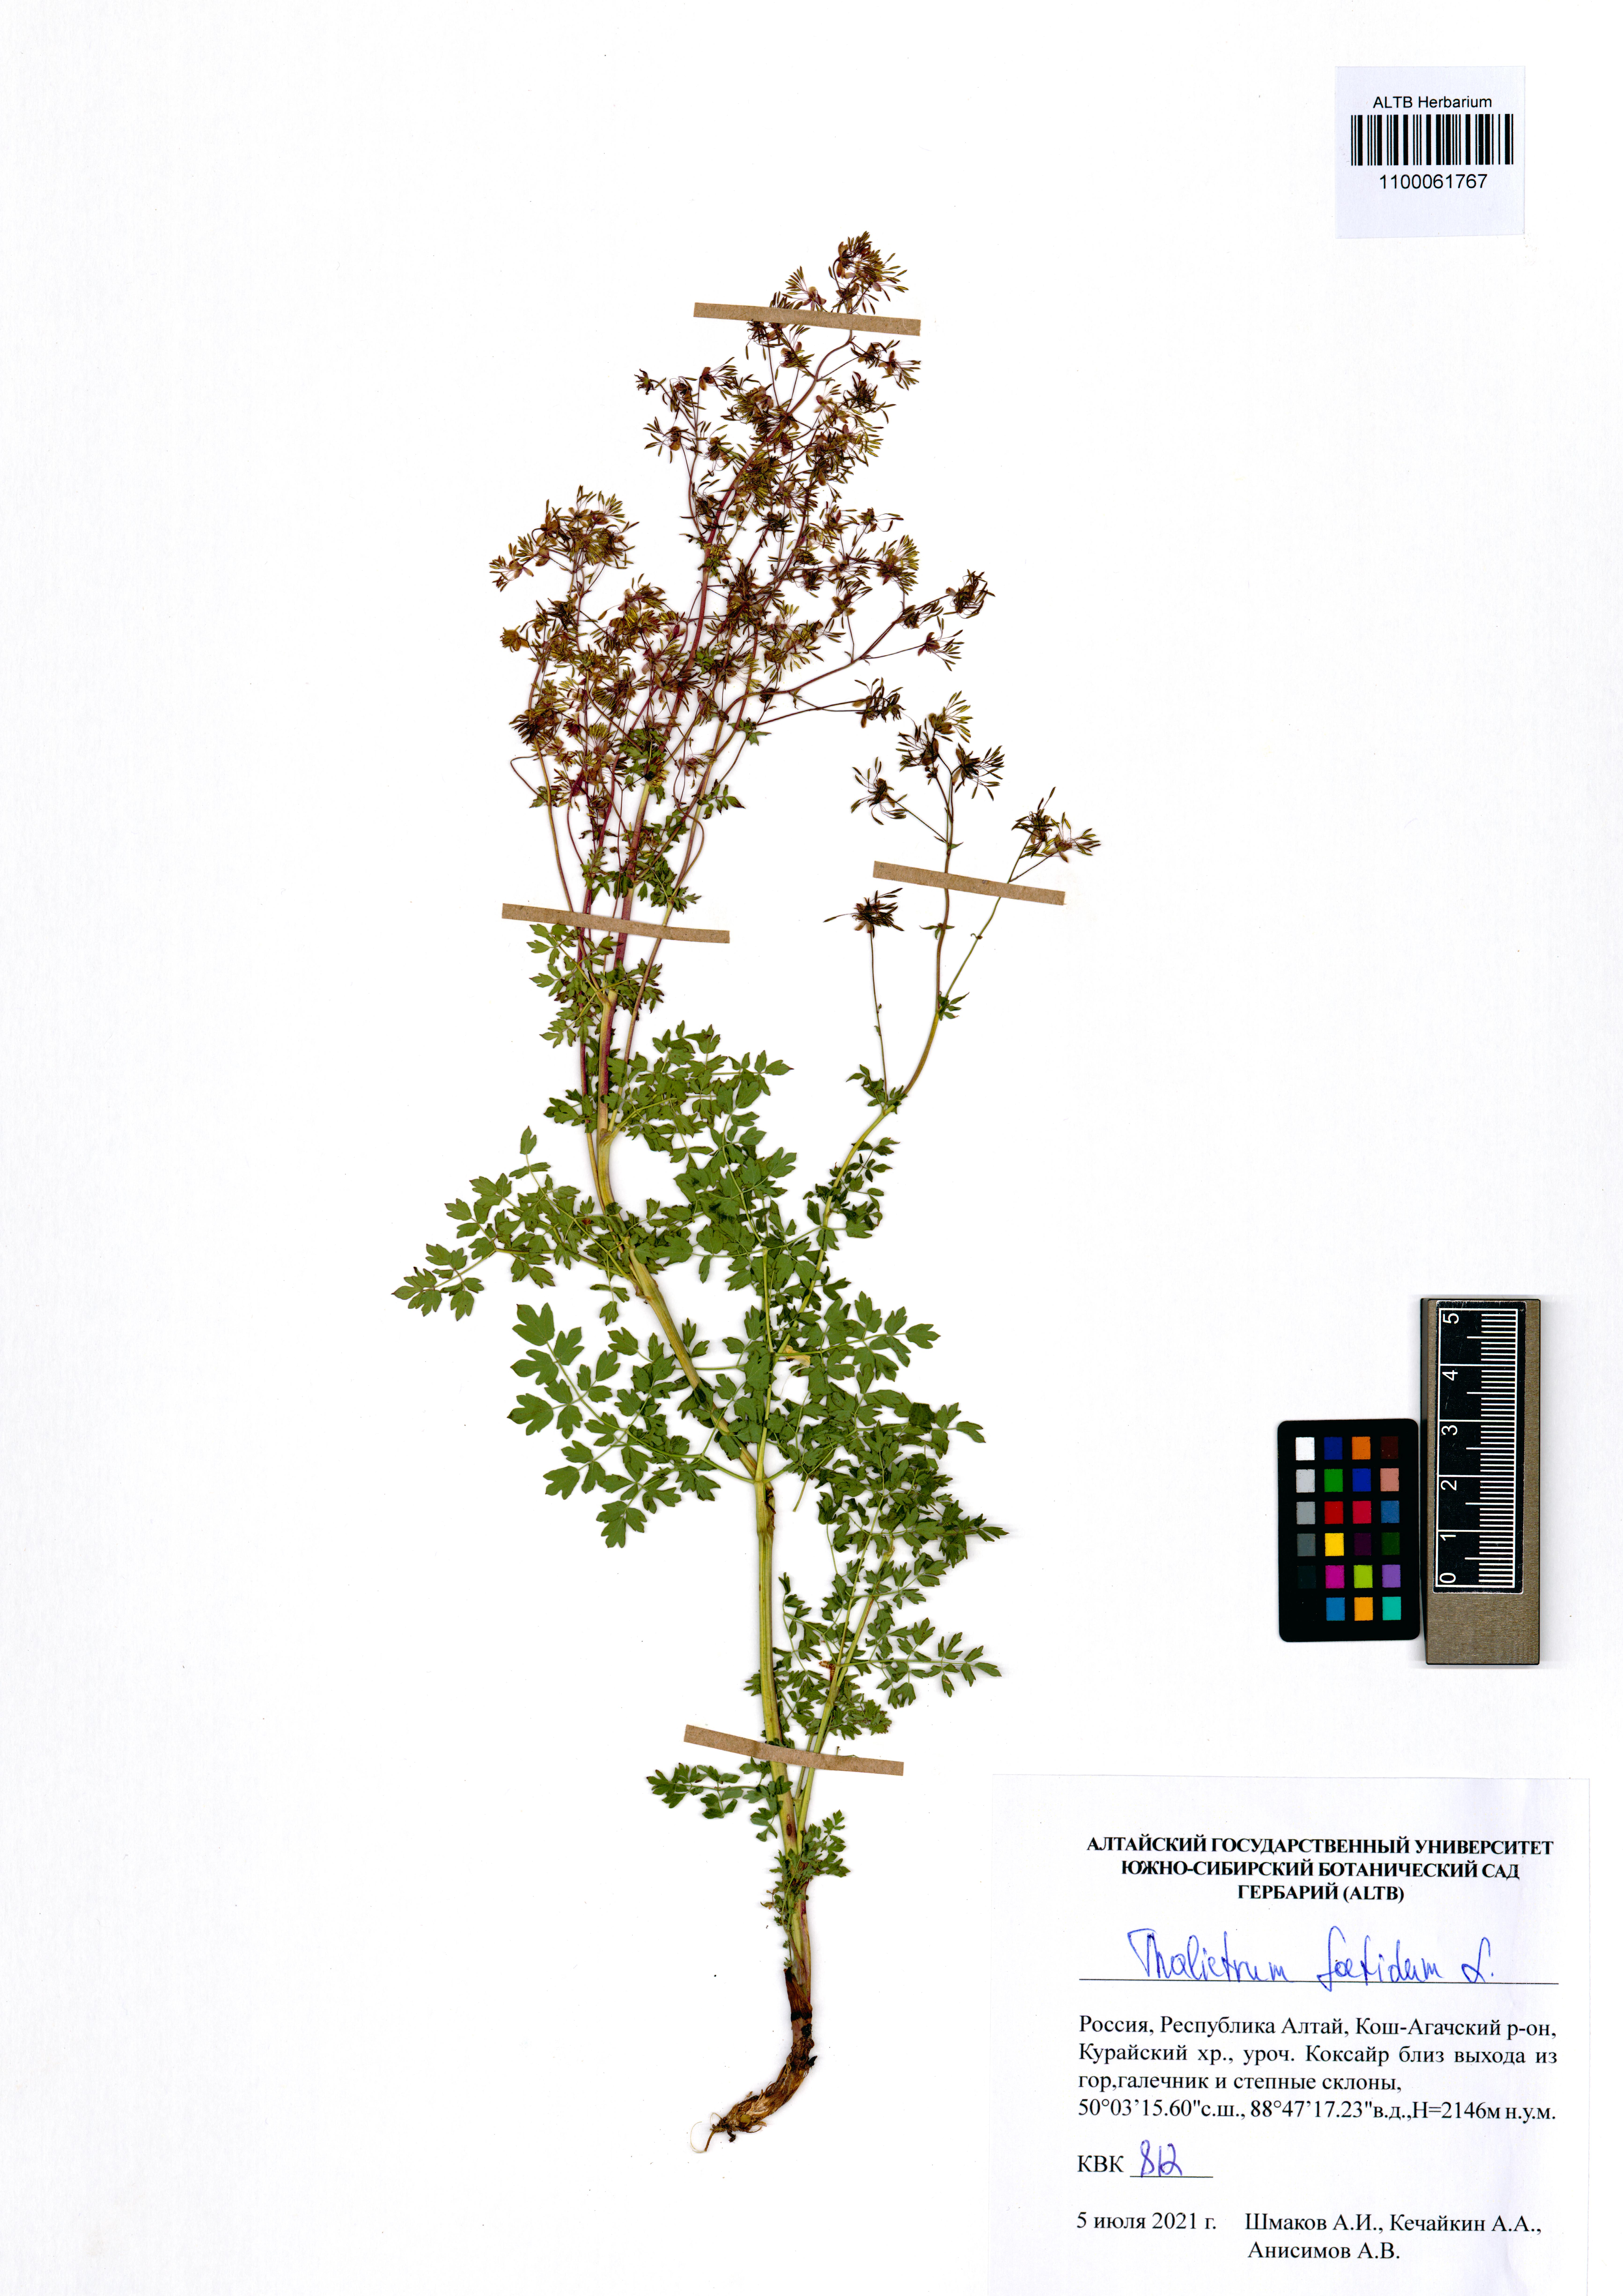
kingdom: Plantae
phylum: Tracheophyta
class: Magnoliopsida
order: Ranunculales
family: Ranunculaceae
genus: Thalictrum
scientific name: Thalictrum foetidum
